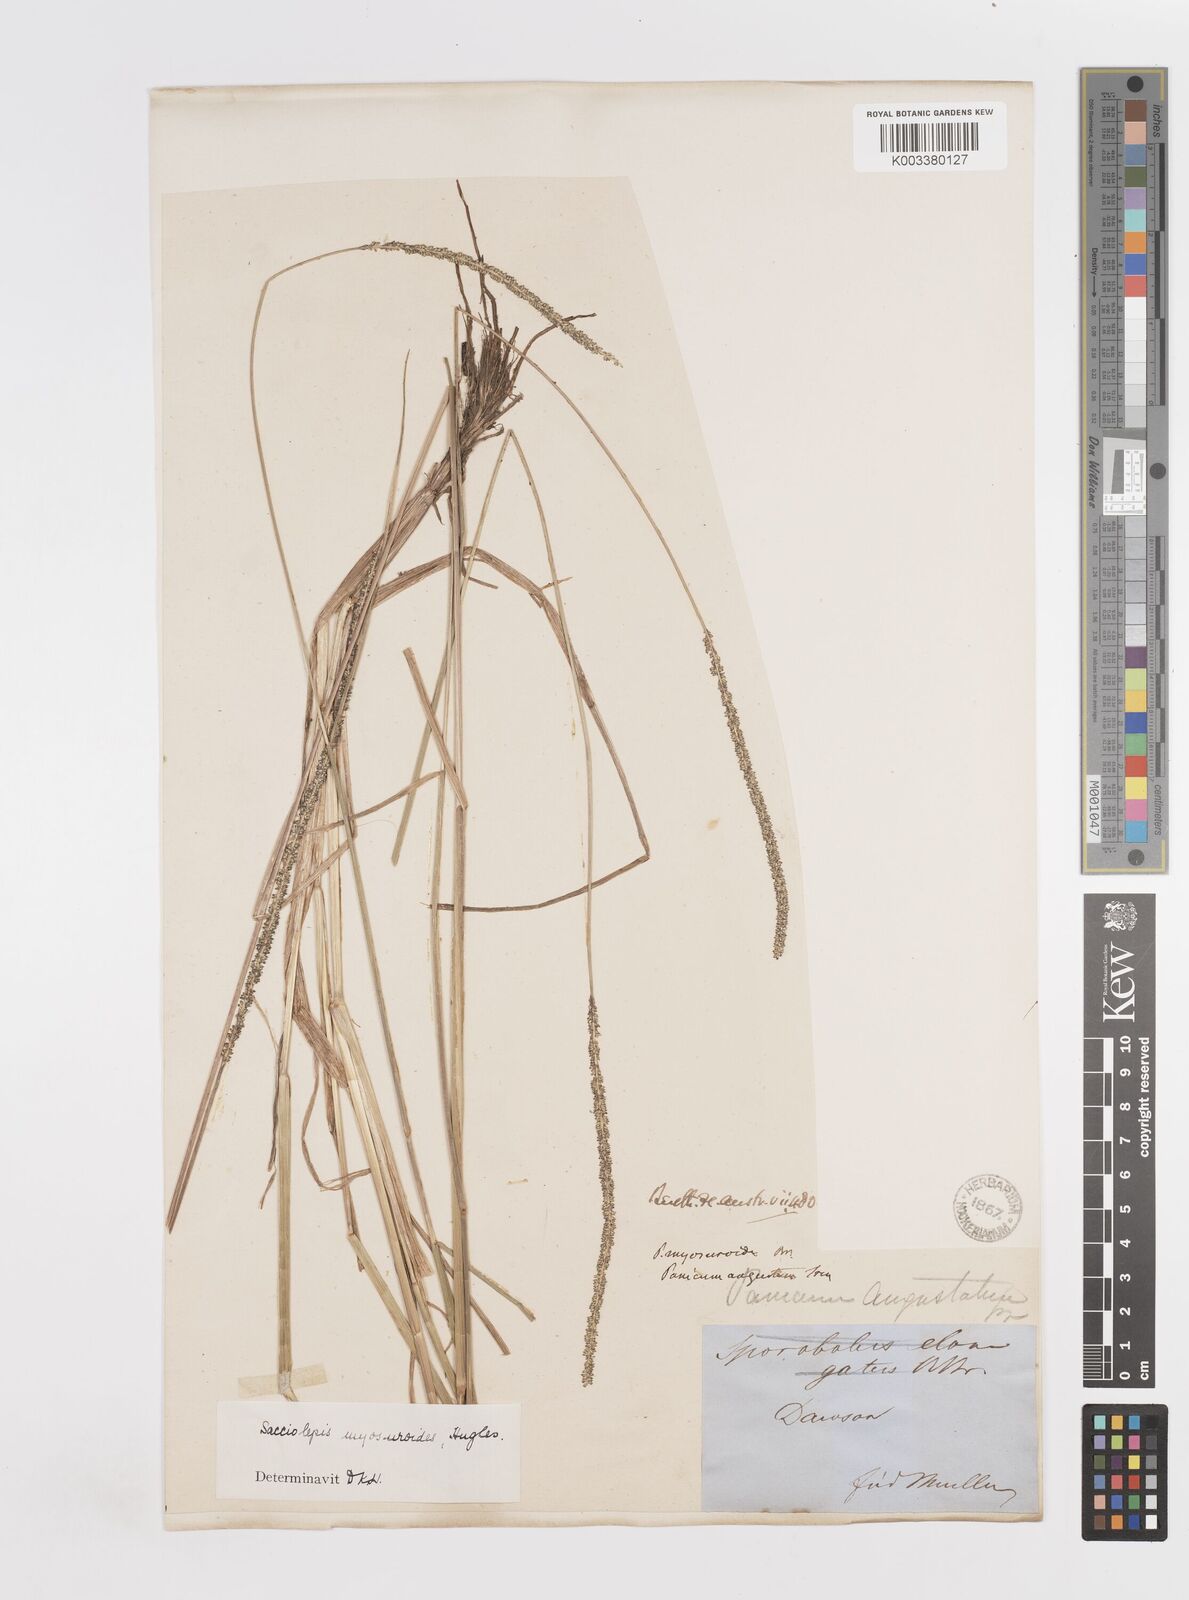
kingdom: Plantae
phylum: Tracheophyta
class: Liliopsida
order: Poales
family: Poaceae
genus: Sacciolepis
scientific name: Sacciolepis myosuroides
